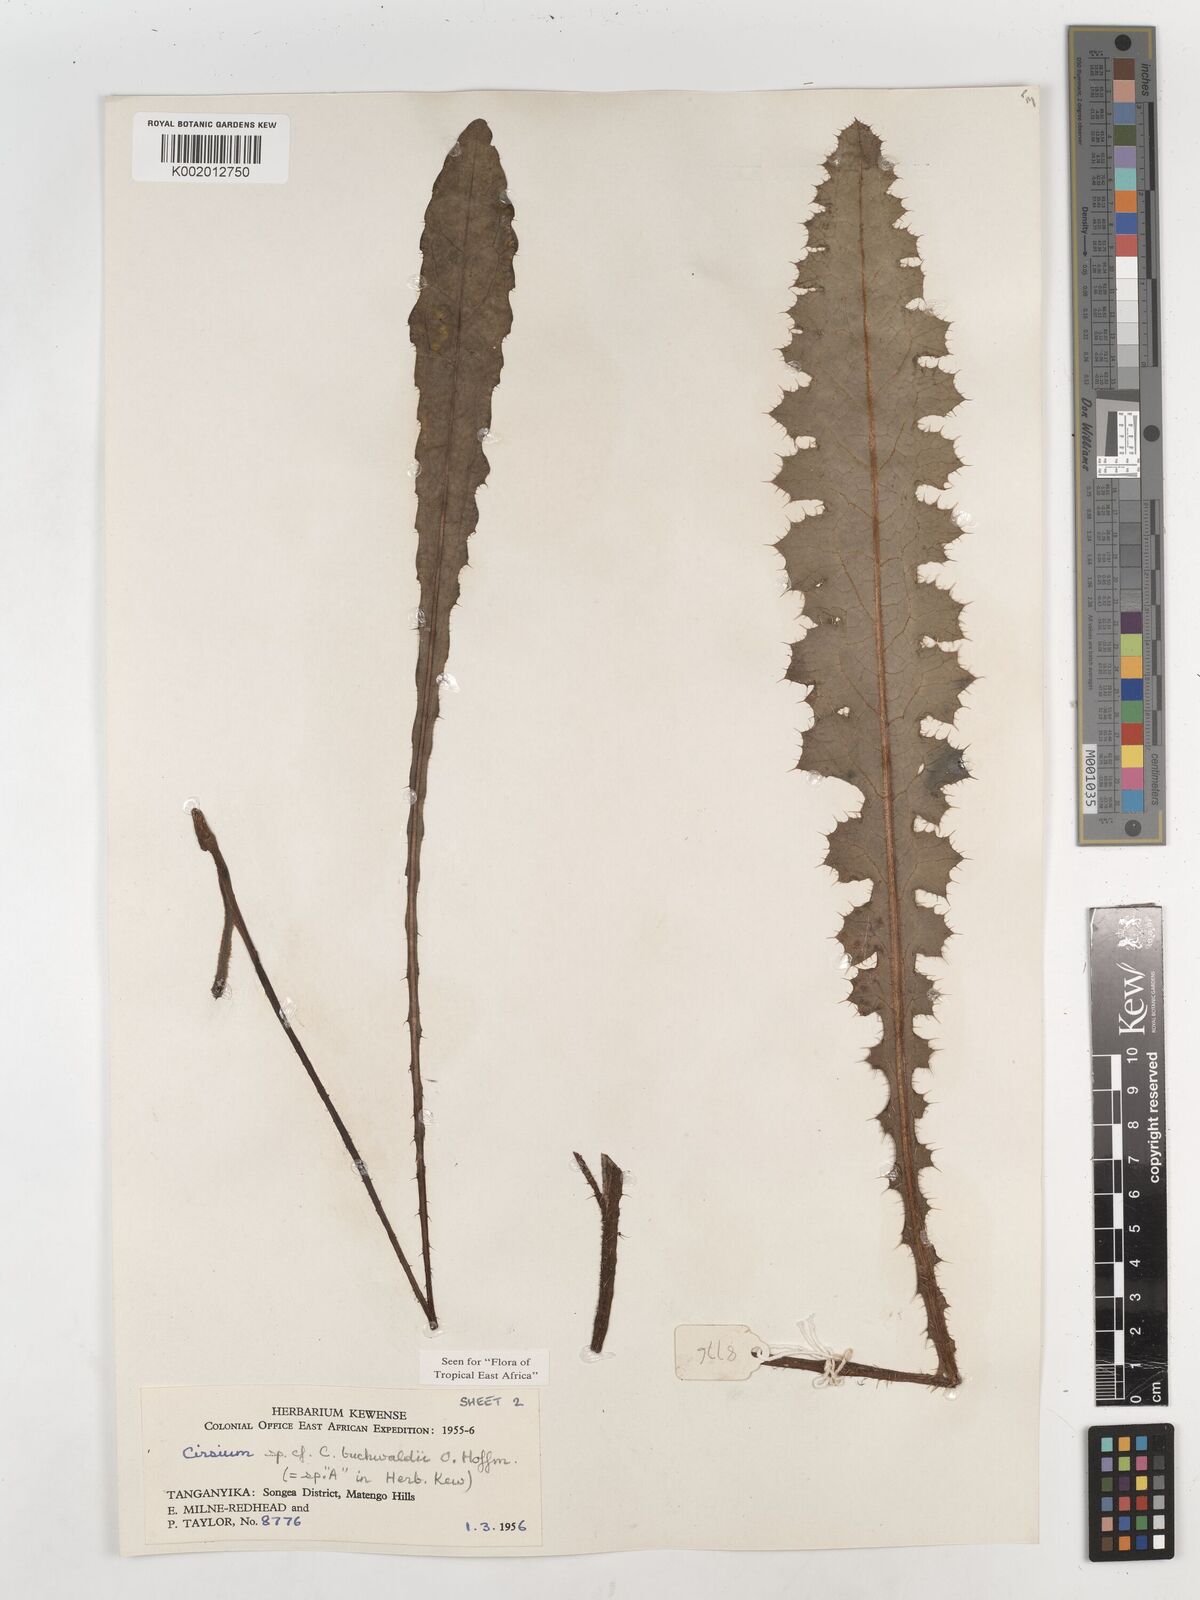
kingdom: Plantae
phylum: Tracheophyta
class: Magnoliopsida
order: Asterales
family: Asteraceae
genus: Cirsium
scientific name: Cirsium buchwaldii
